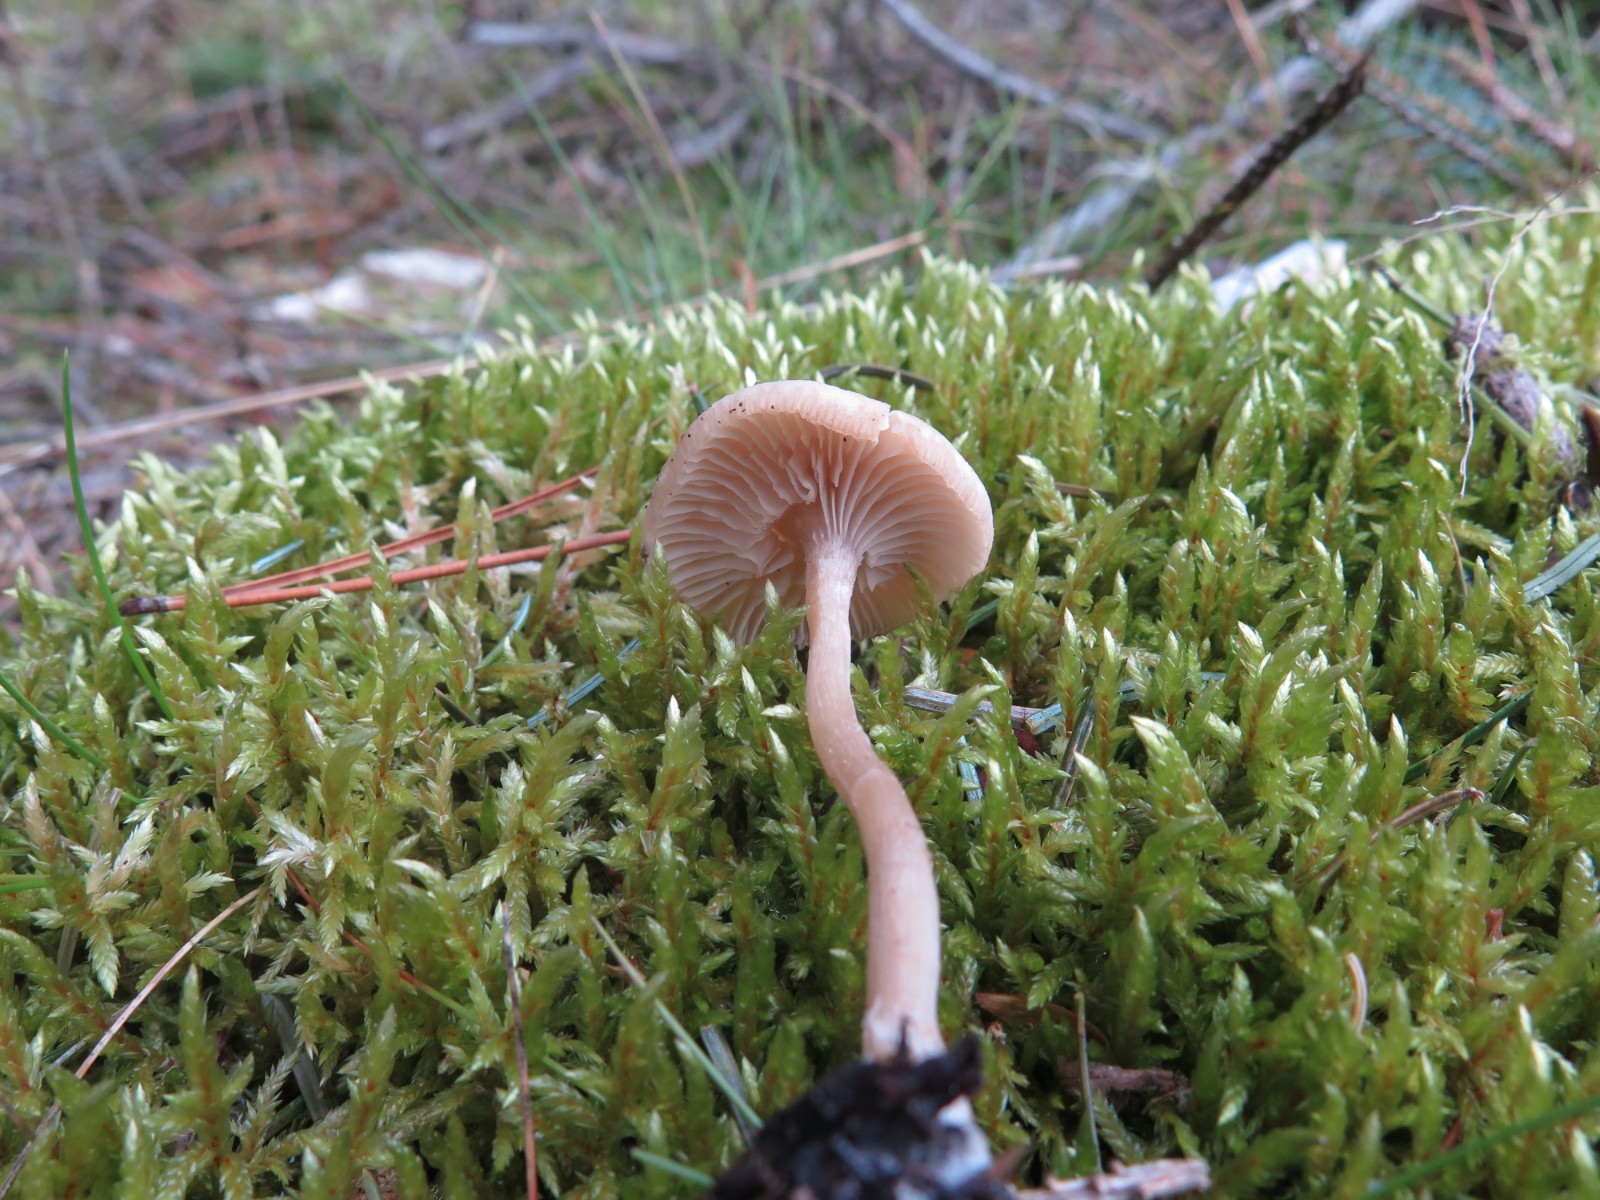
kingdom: Fungi
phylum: Basidiomycota
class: Agaricomycetes
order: Agaricales
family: Tricholomataceae
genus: Clitocybe
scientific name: Clitocybe fragrans
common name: vellugtende tragthat
